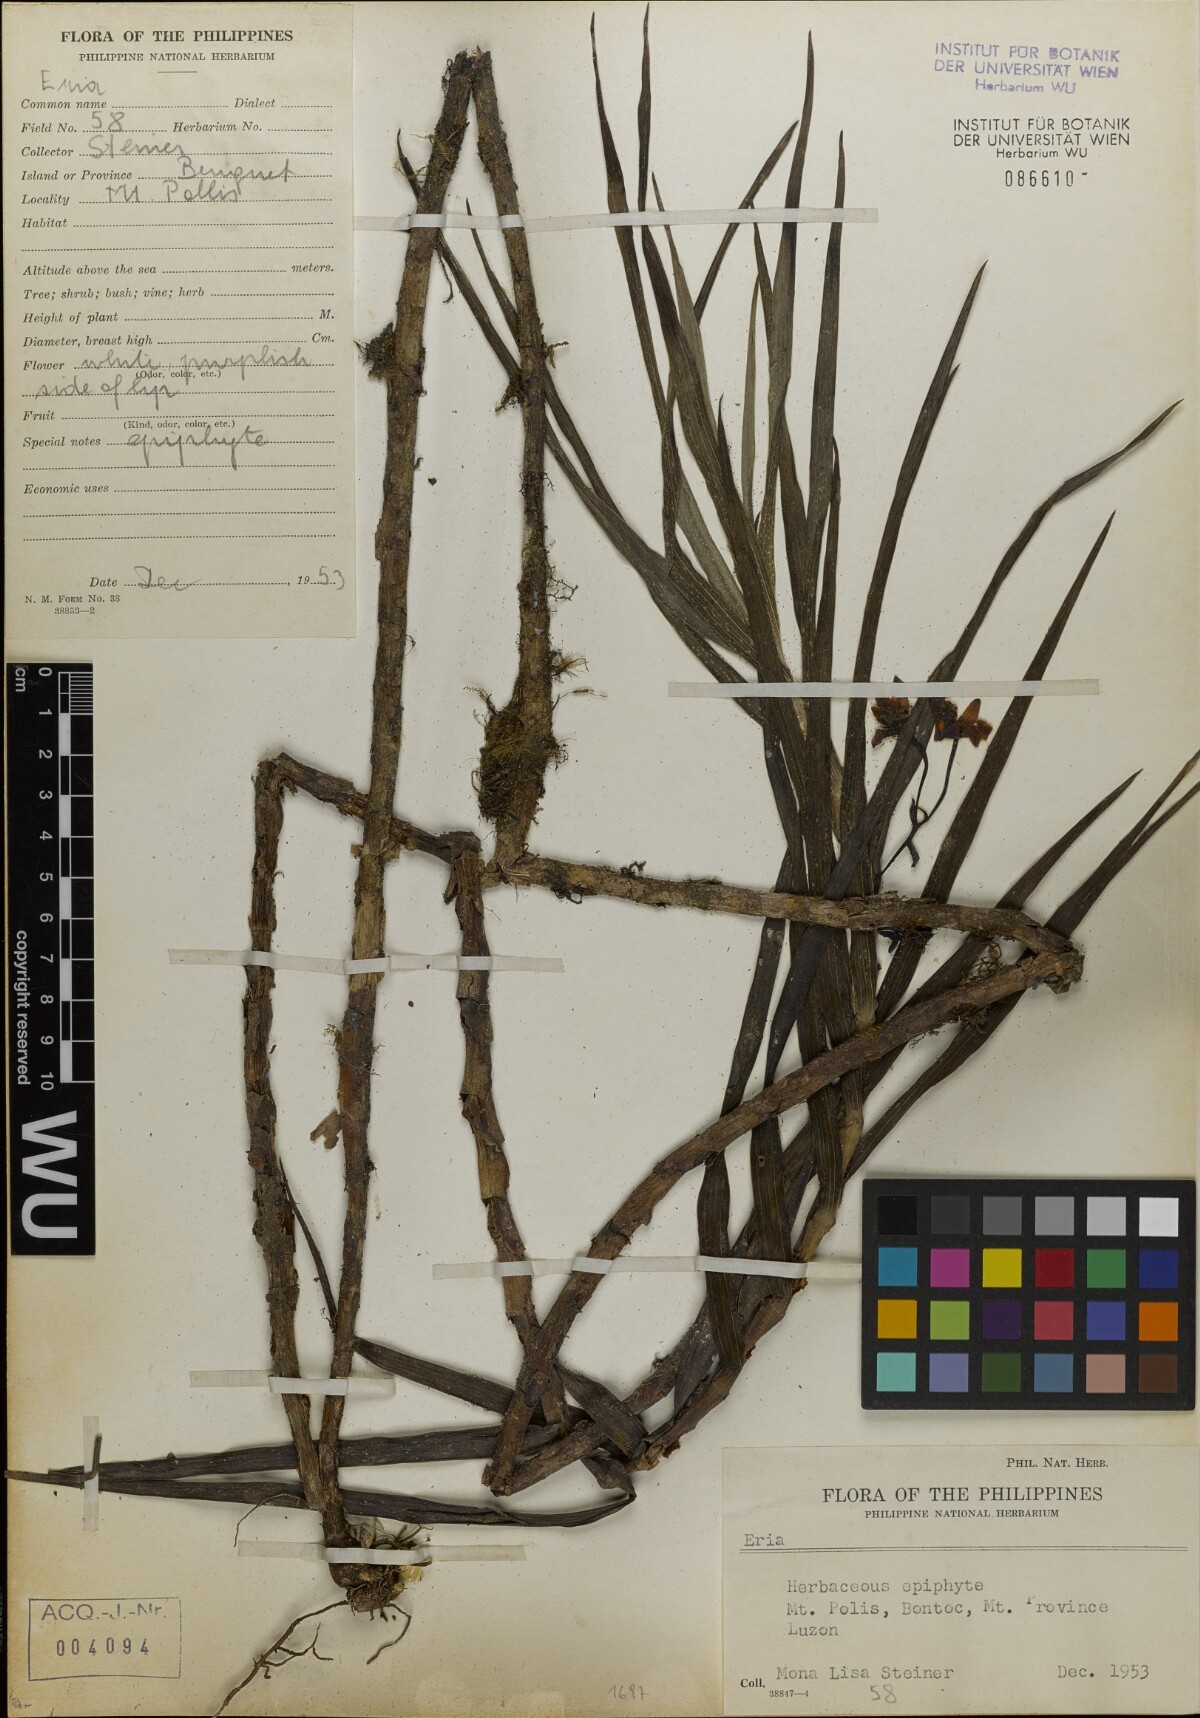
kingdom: Plantae
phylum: Tracheophyta
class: Liliopsida
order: Asparagales
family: Orchidaceae
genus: Eria
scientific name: Eria
